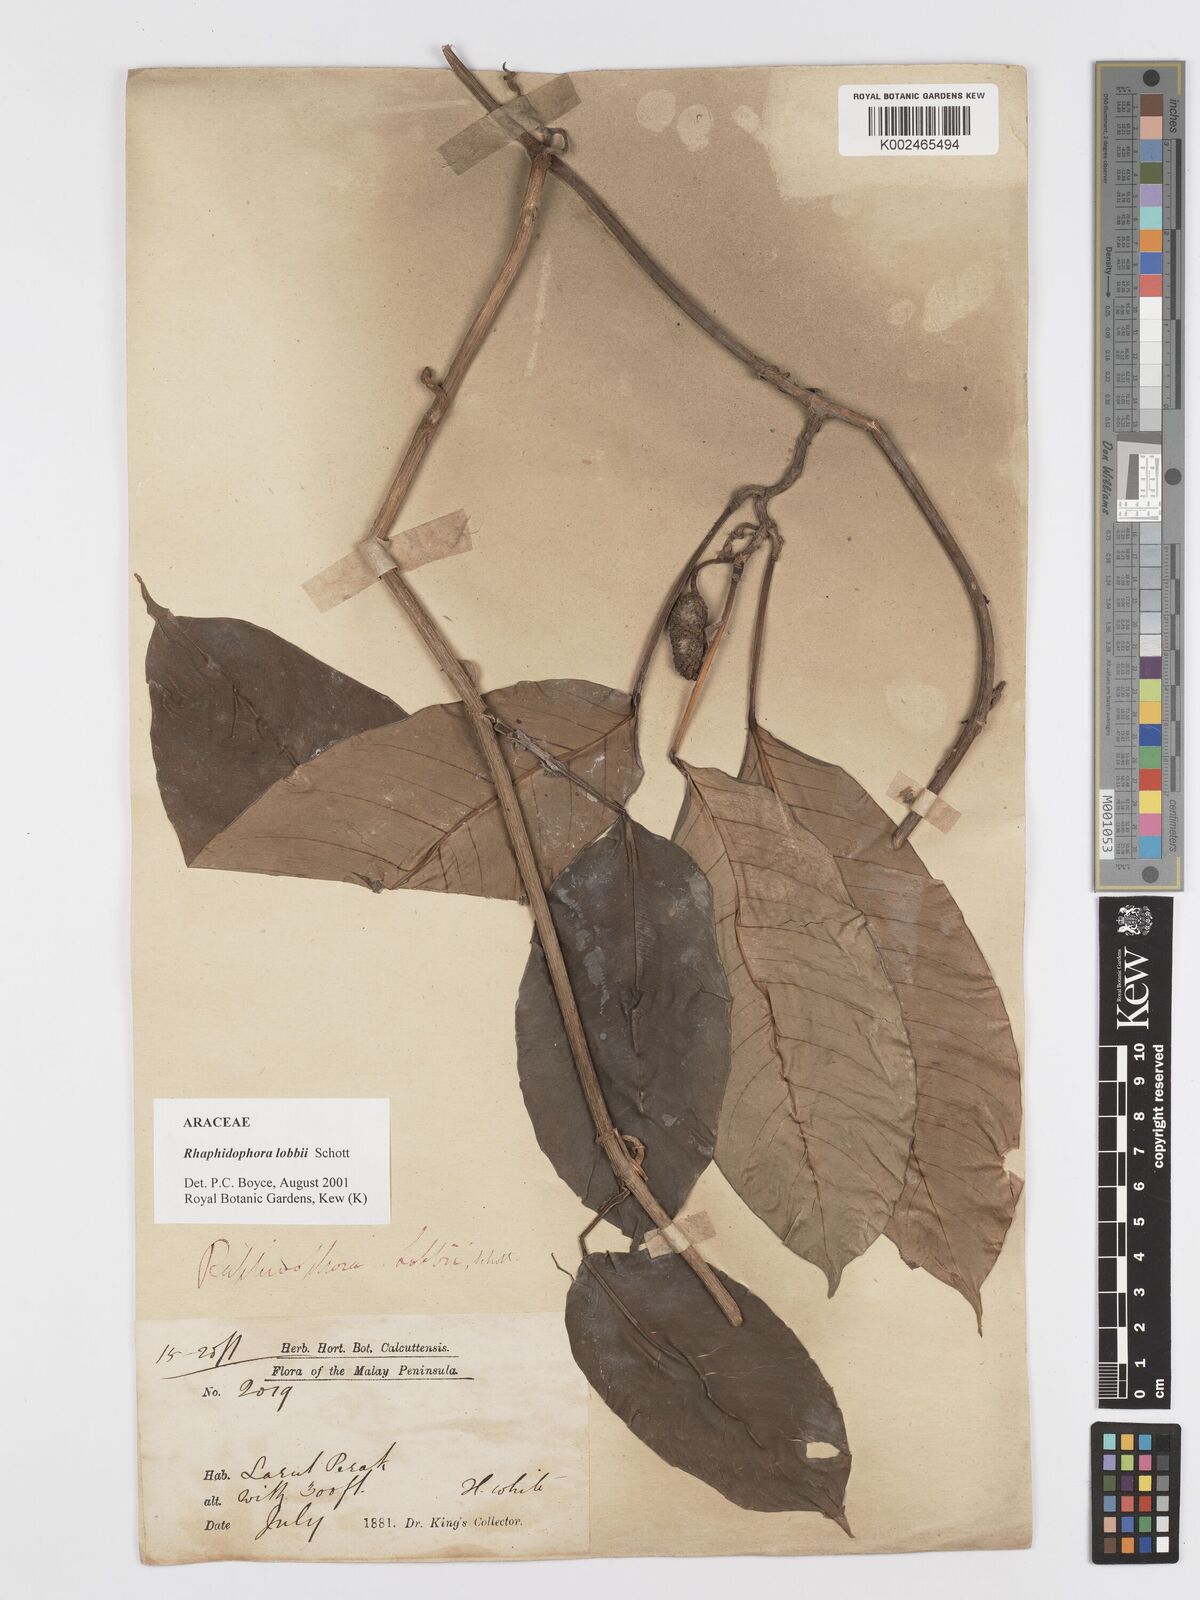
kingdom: Plantae
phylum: Tracheophyta
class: Liliopsida
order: Alismatales
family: Araceae
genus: Rhaphidophora
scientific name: Rhaphidophora lobbii
